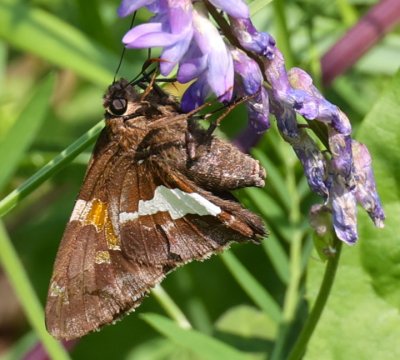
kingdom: Animalia
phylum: Arthropoda
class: Insecta
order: Lepidoptera
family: Hesperiidae
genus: Epargyreus
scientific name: Epargyreus clarus
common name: Silver-spotted Skipper
